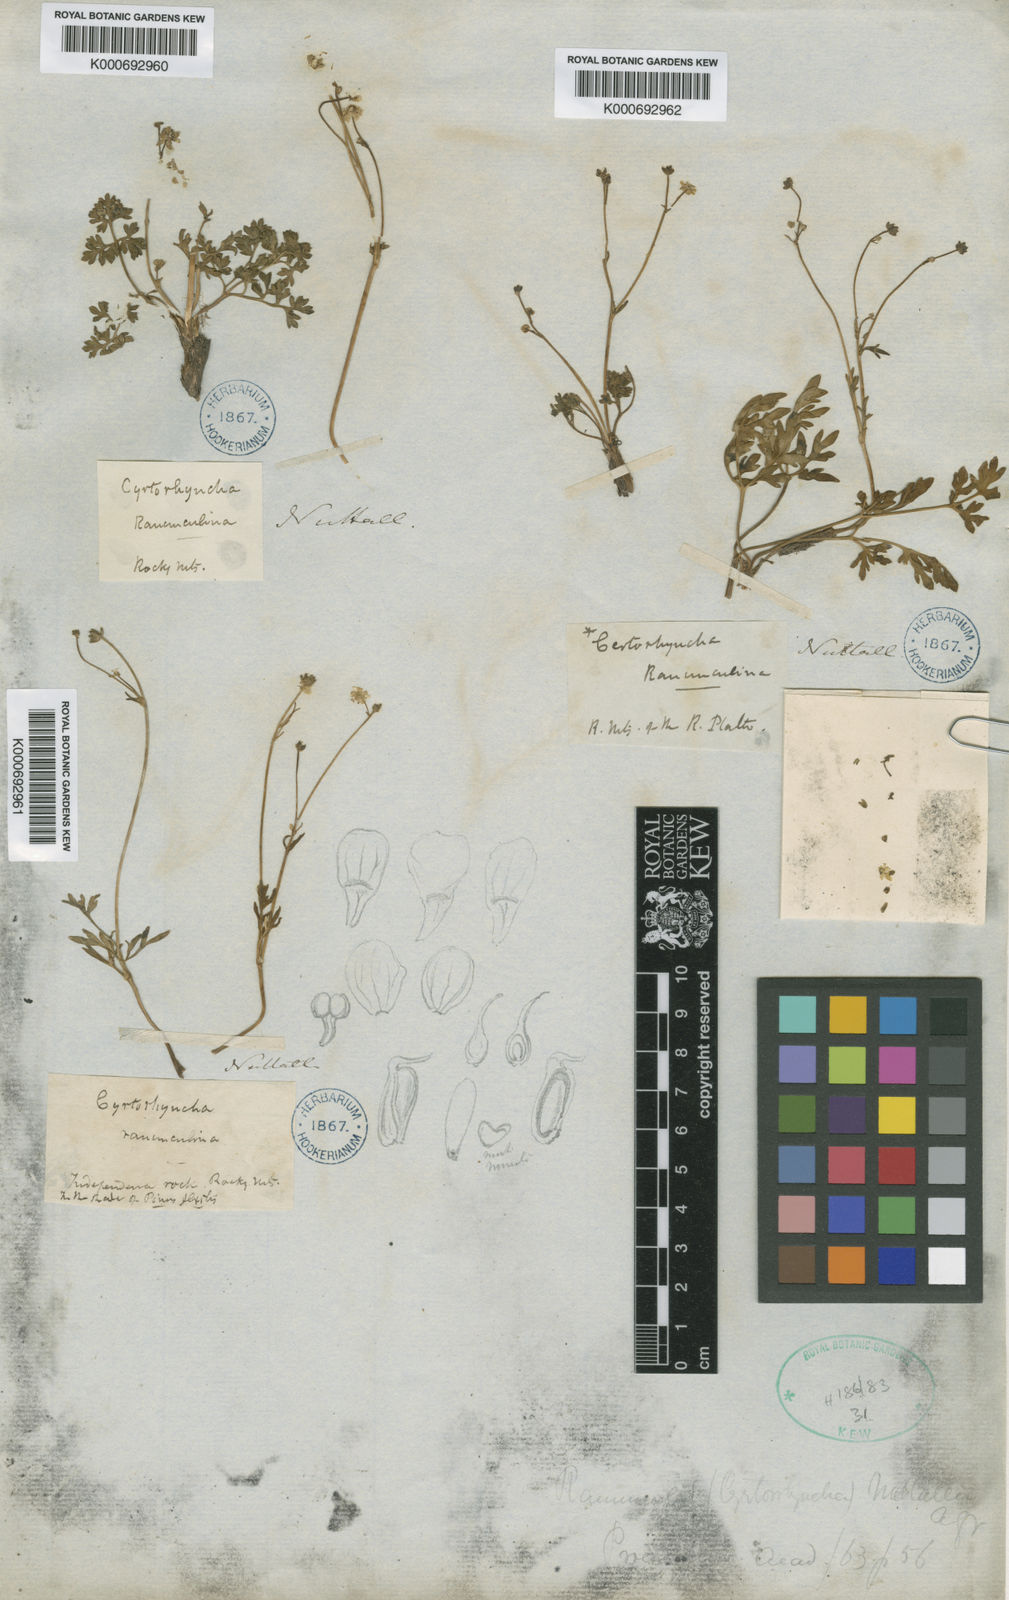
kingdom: Plantae
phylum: Tracheophyta
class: Magnoliopsida
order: Ranunculales
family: Ranunculaceae
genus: Cyrtorhyncha
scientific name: Cyrtorhyncha ranunculina
